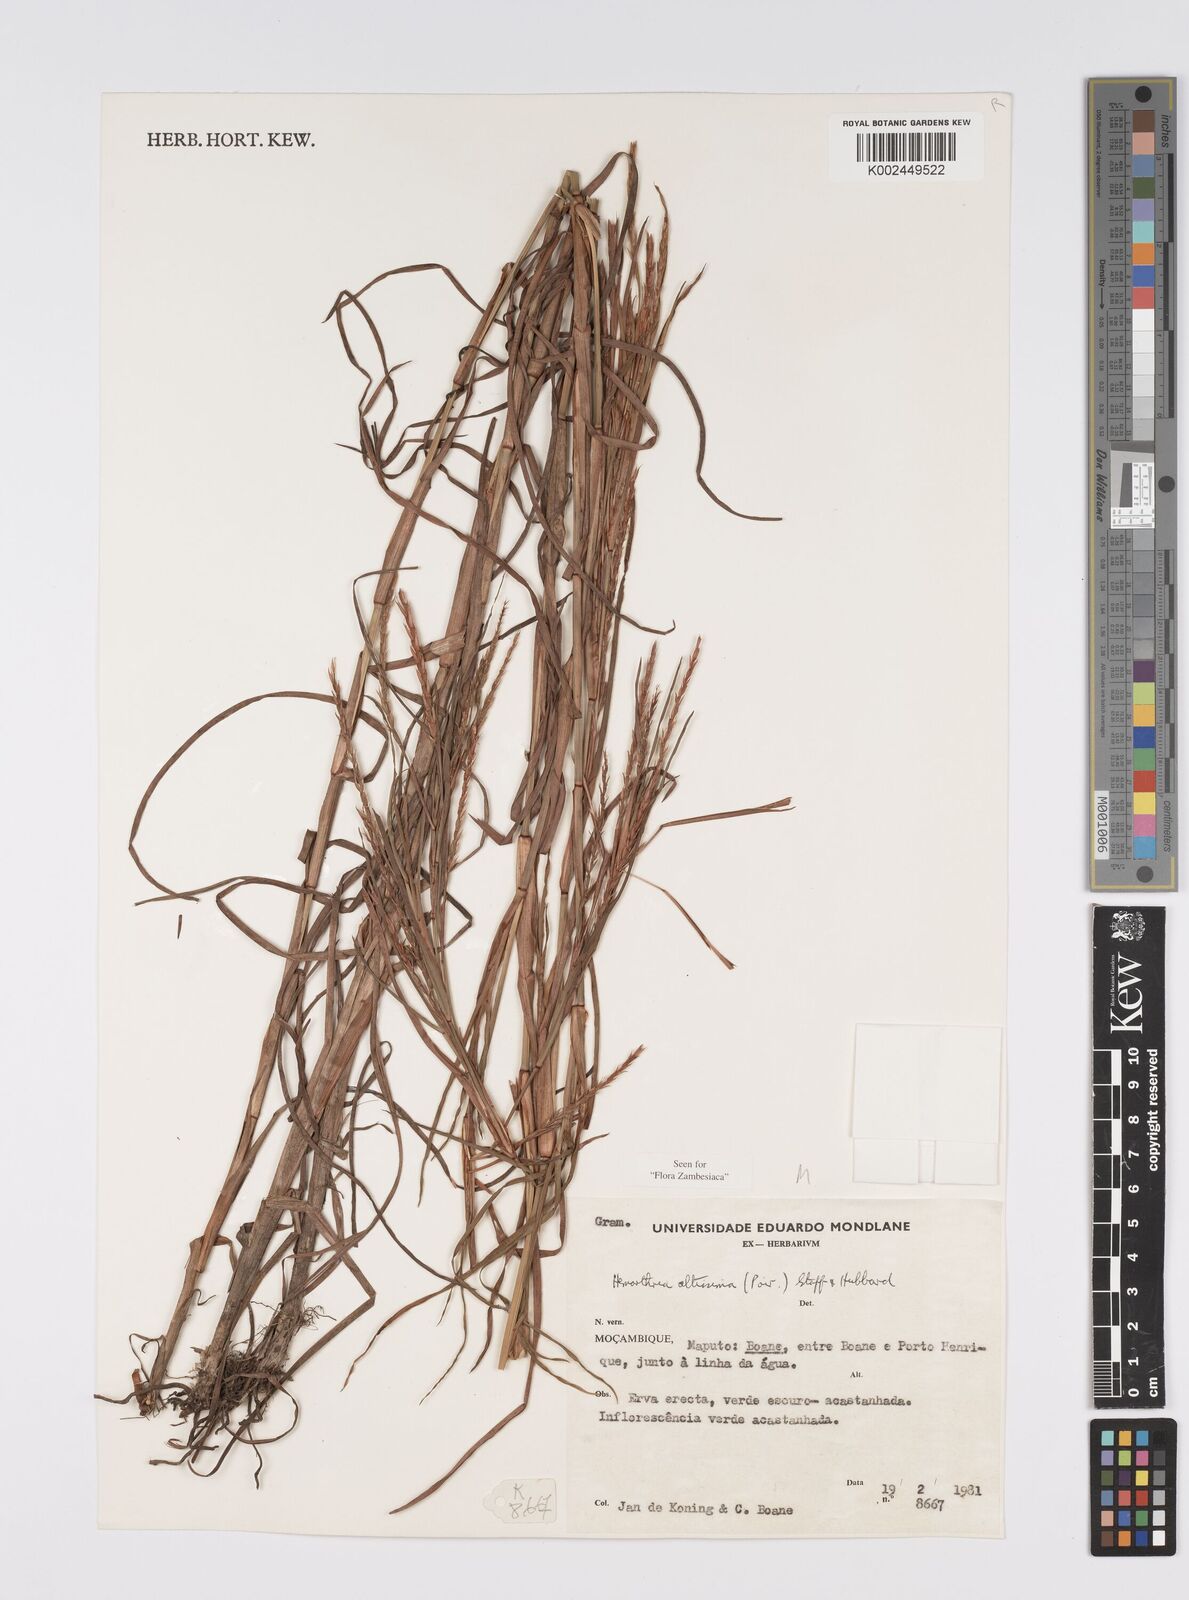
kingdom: Plantae
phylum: Tracheophyta
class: Liliopsida
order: Poales
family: Poaceae
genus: Hemarthria
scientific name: Hemarthria altissima
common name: African jointgrass
